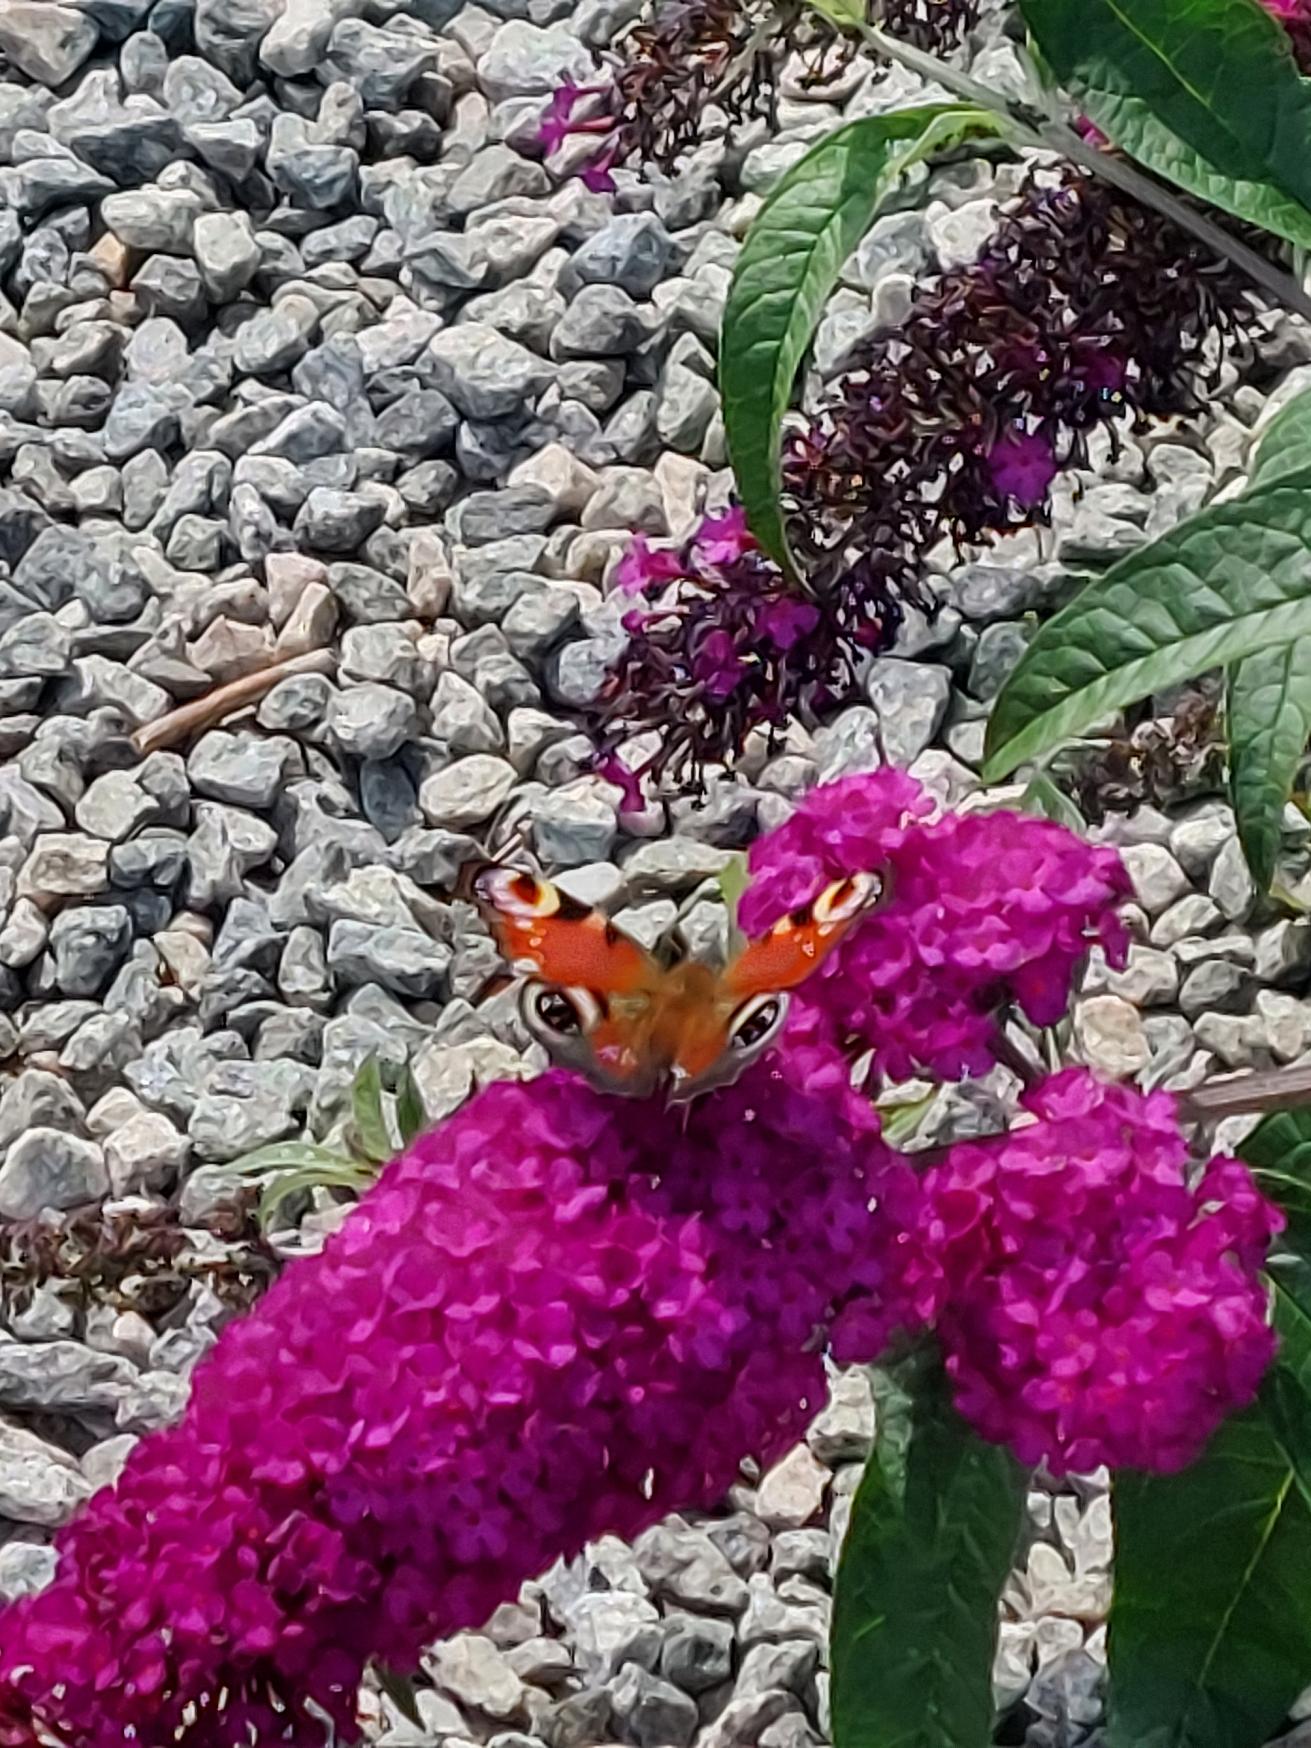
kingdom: Animalia
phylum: Arthropoda
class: Insecta
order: Lepidoptera
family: Nymphalidae
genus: Aglais
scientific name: Aglais io
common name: Dagpåfugleøje
